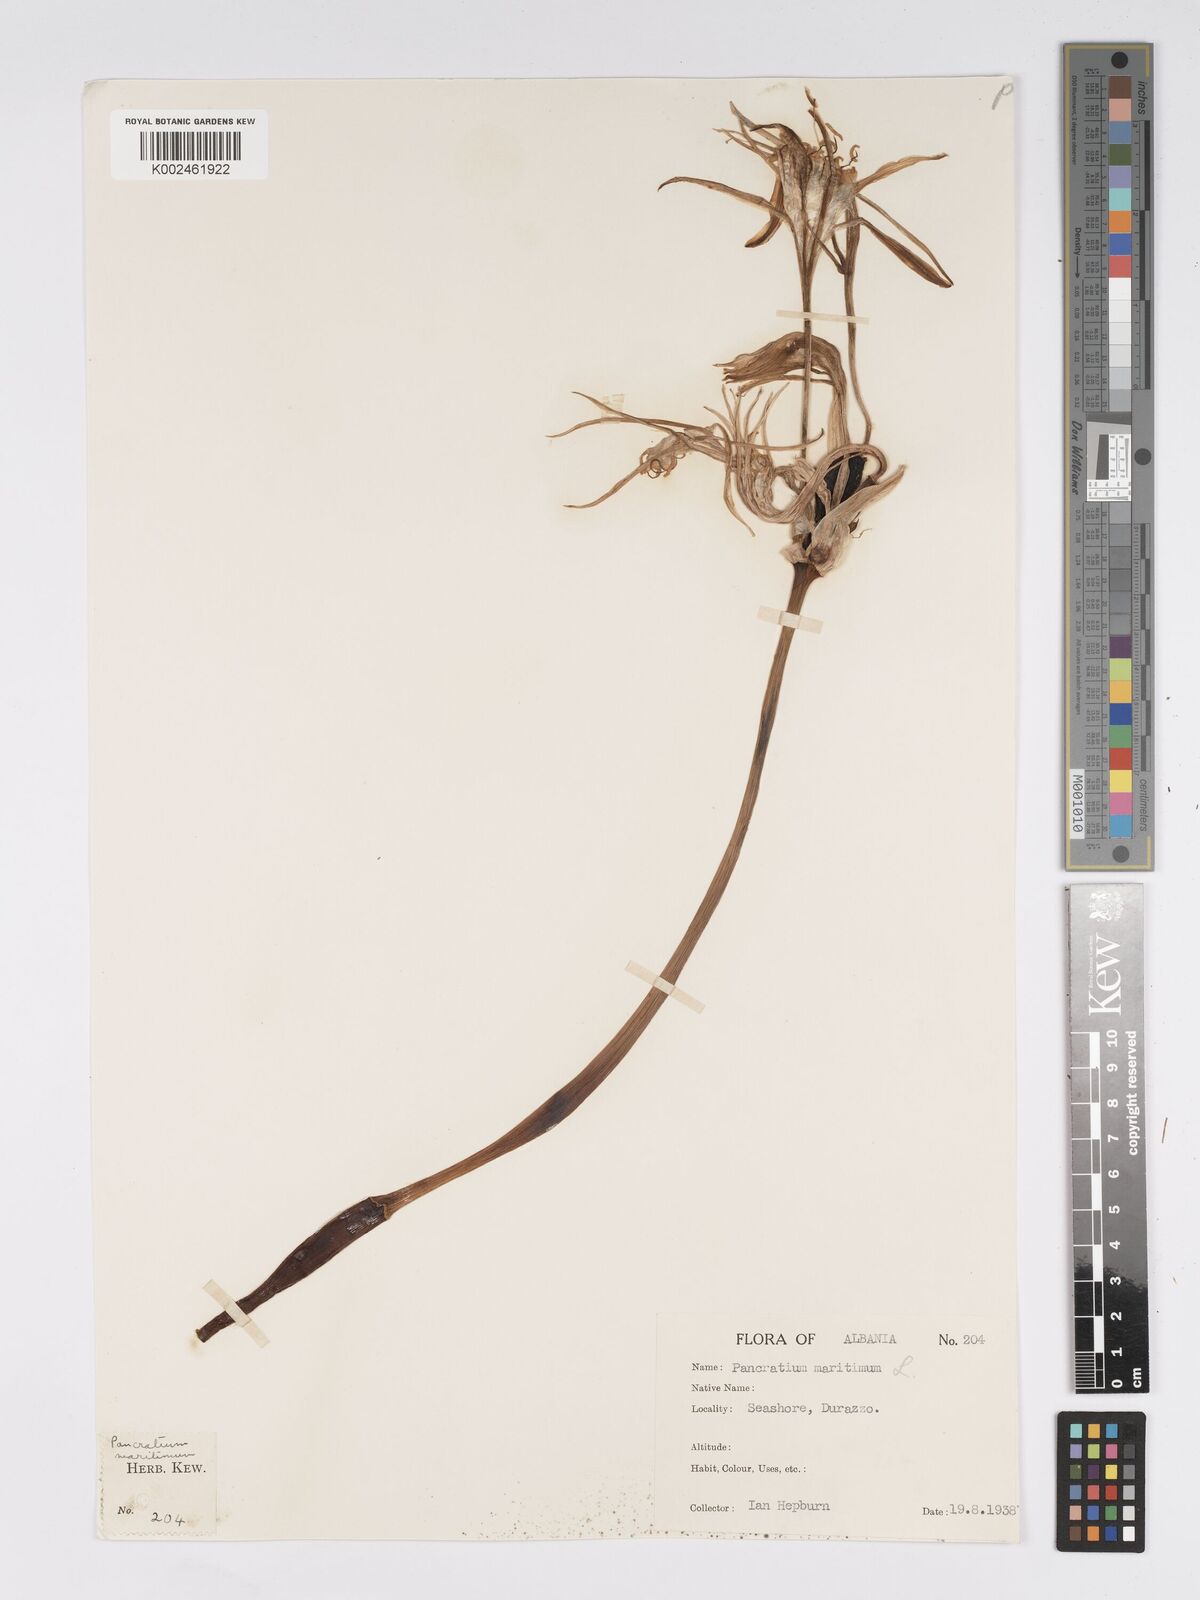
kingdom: Plantae
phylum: Tracheophyta
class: Liliopsida
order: Asparagales
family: Amaryllidaceae
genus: Pancratium
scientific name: Pancratium maritimum
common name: Sea-daffodil
